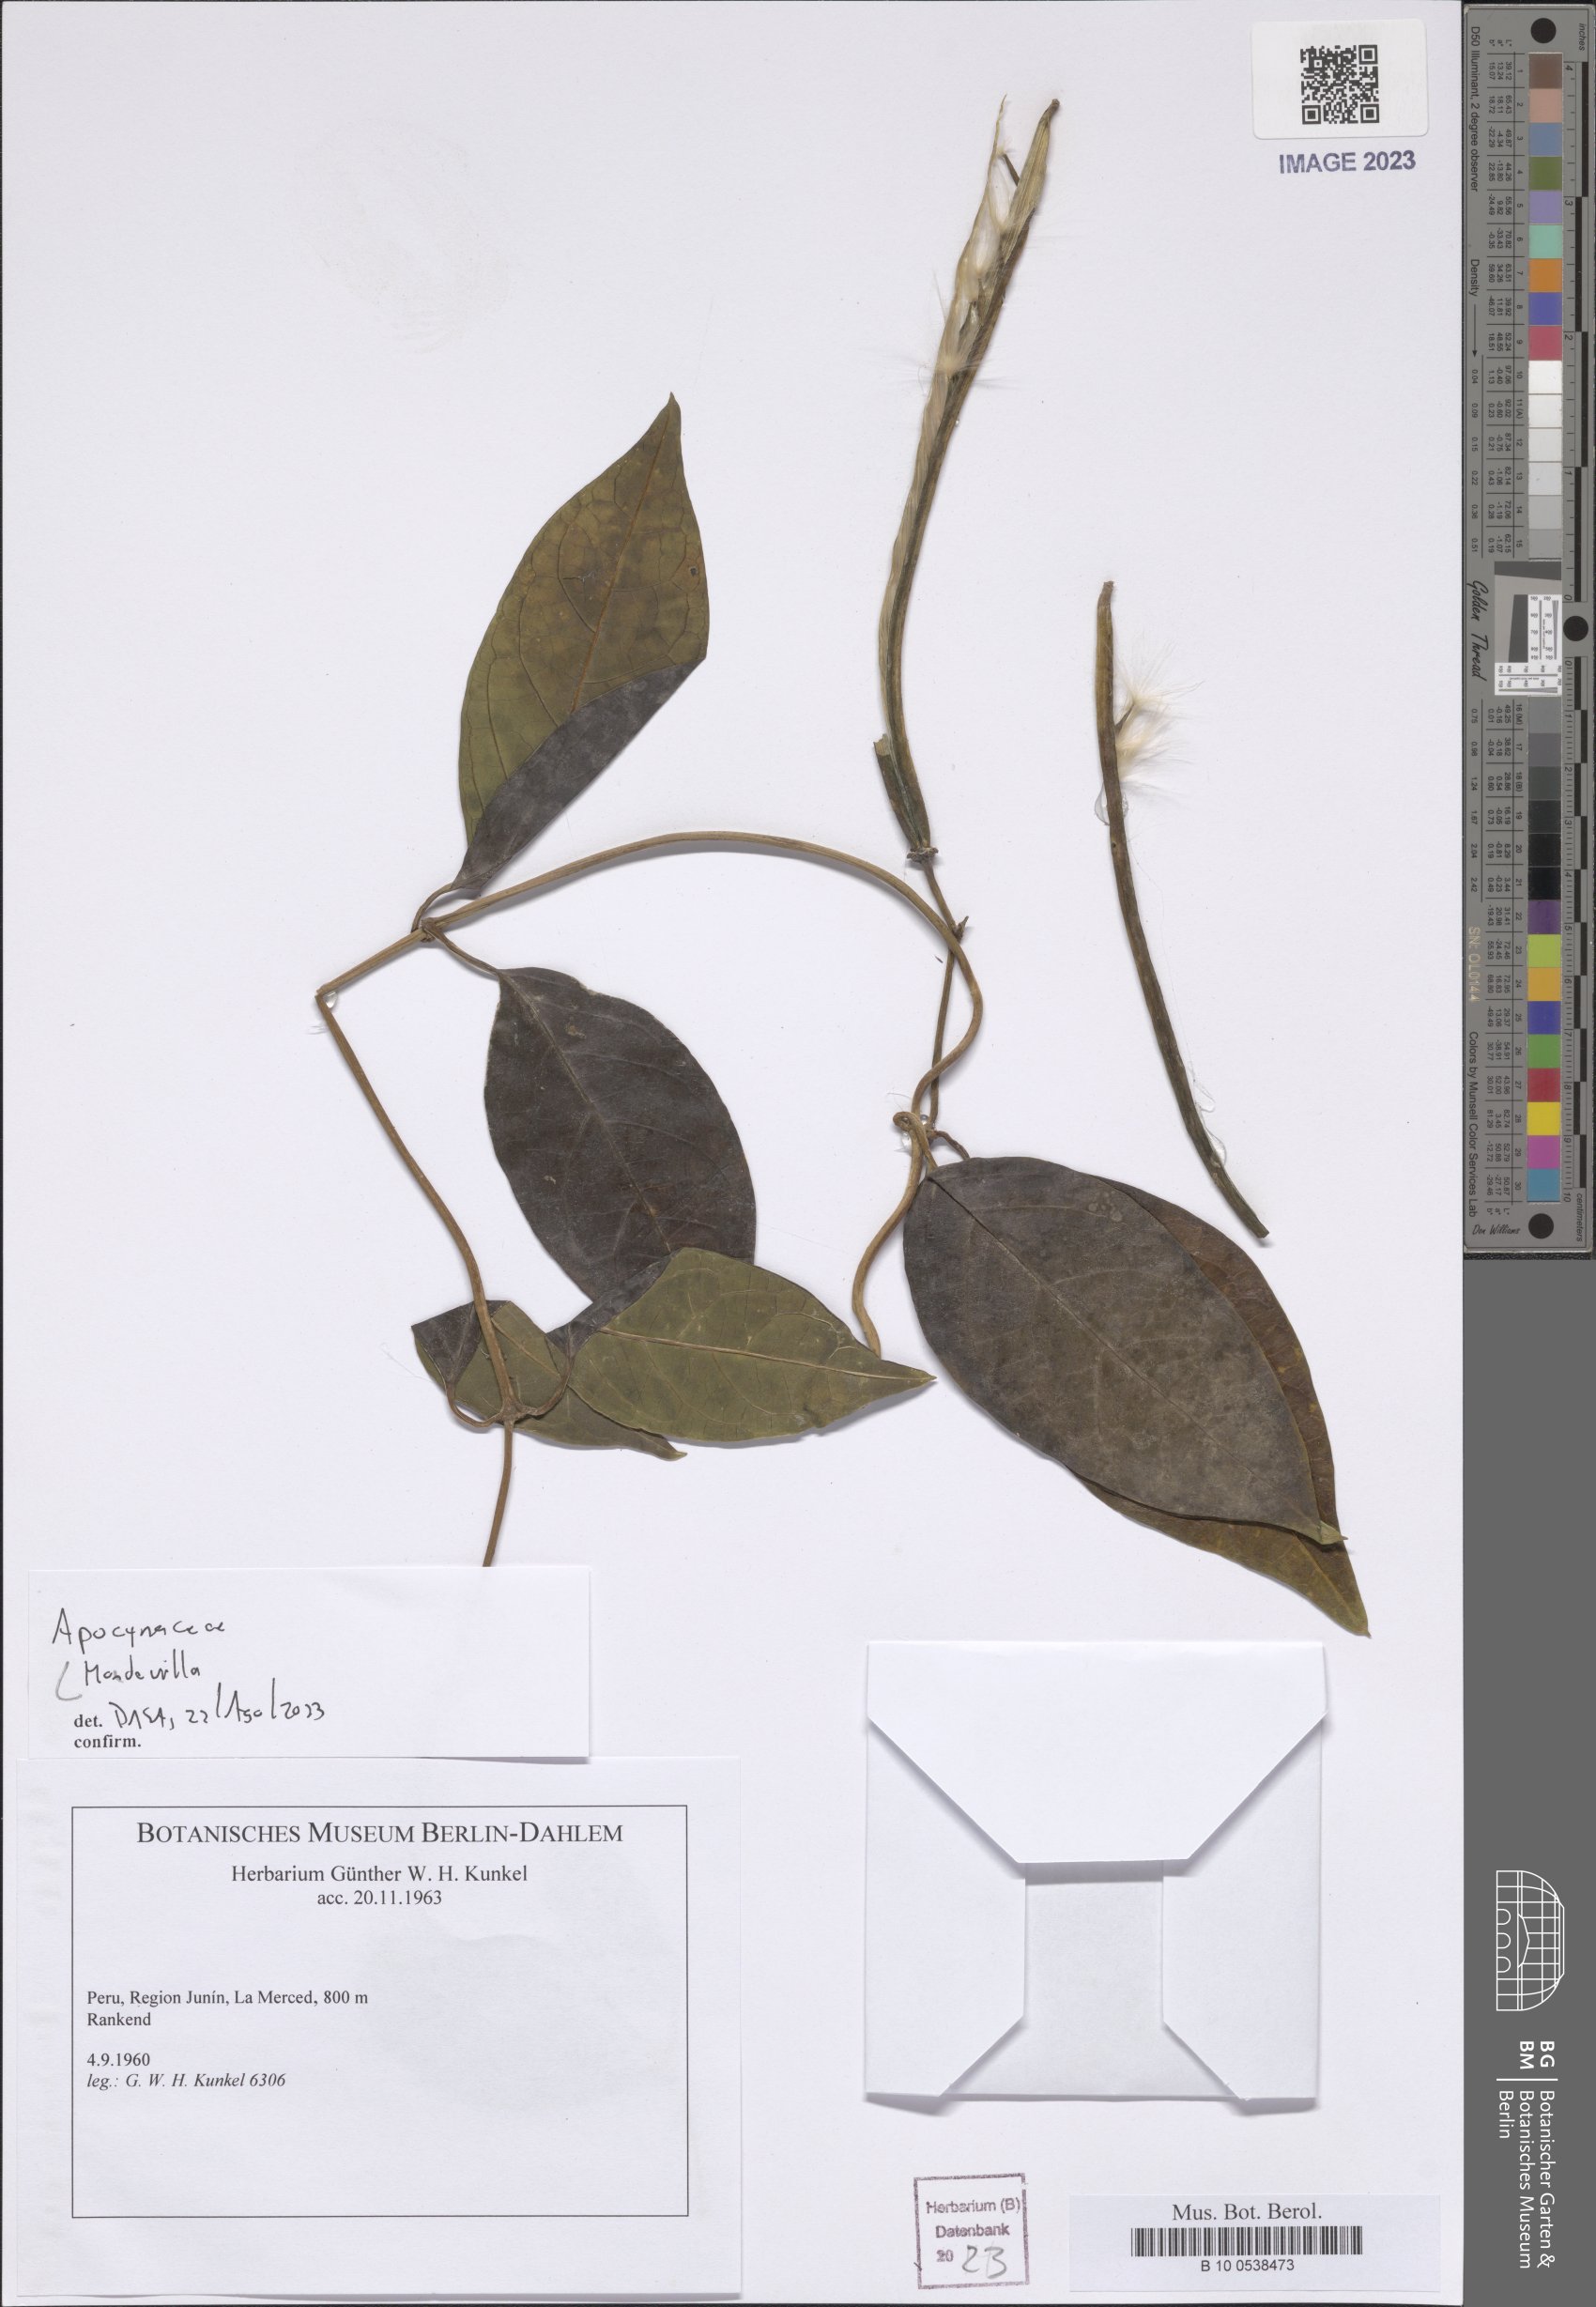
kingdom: Plantae
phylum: Tracheophyta
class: Magnoliopsida
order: Gentianales
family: Apocynaceae
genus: Mandevilla
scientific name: Mandevilla
